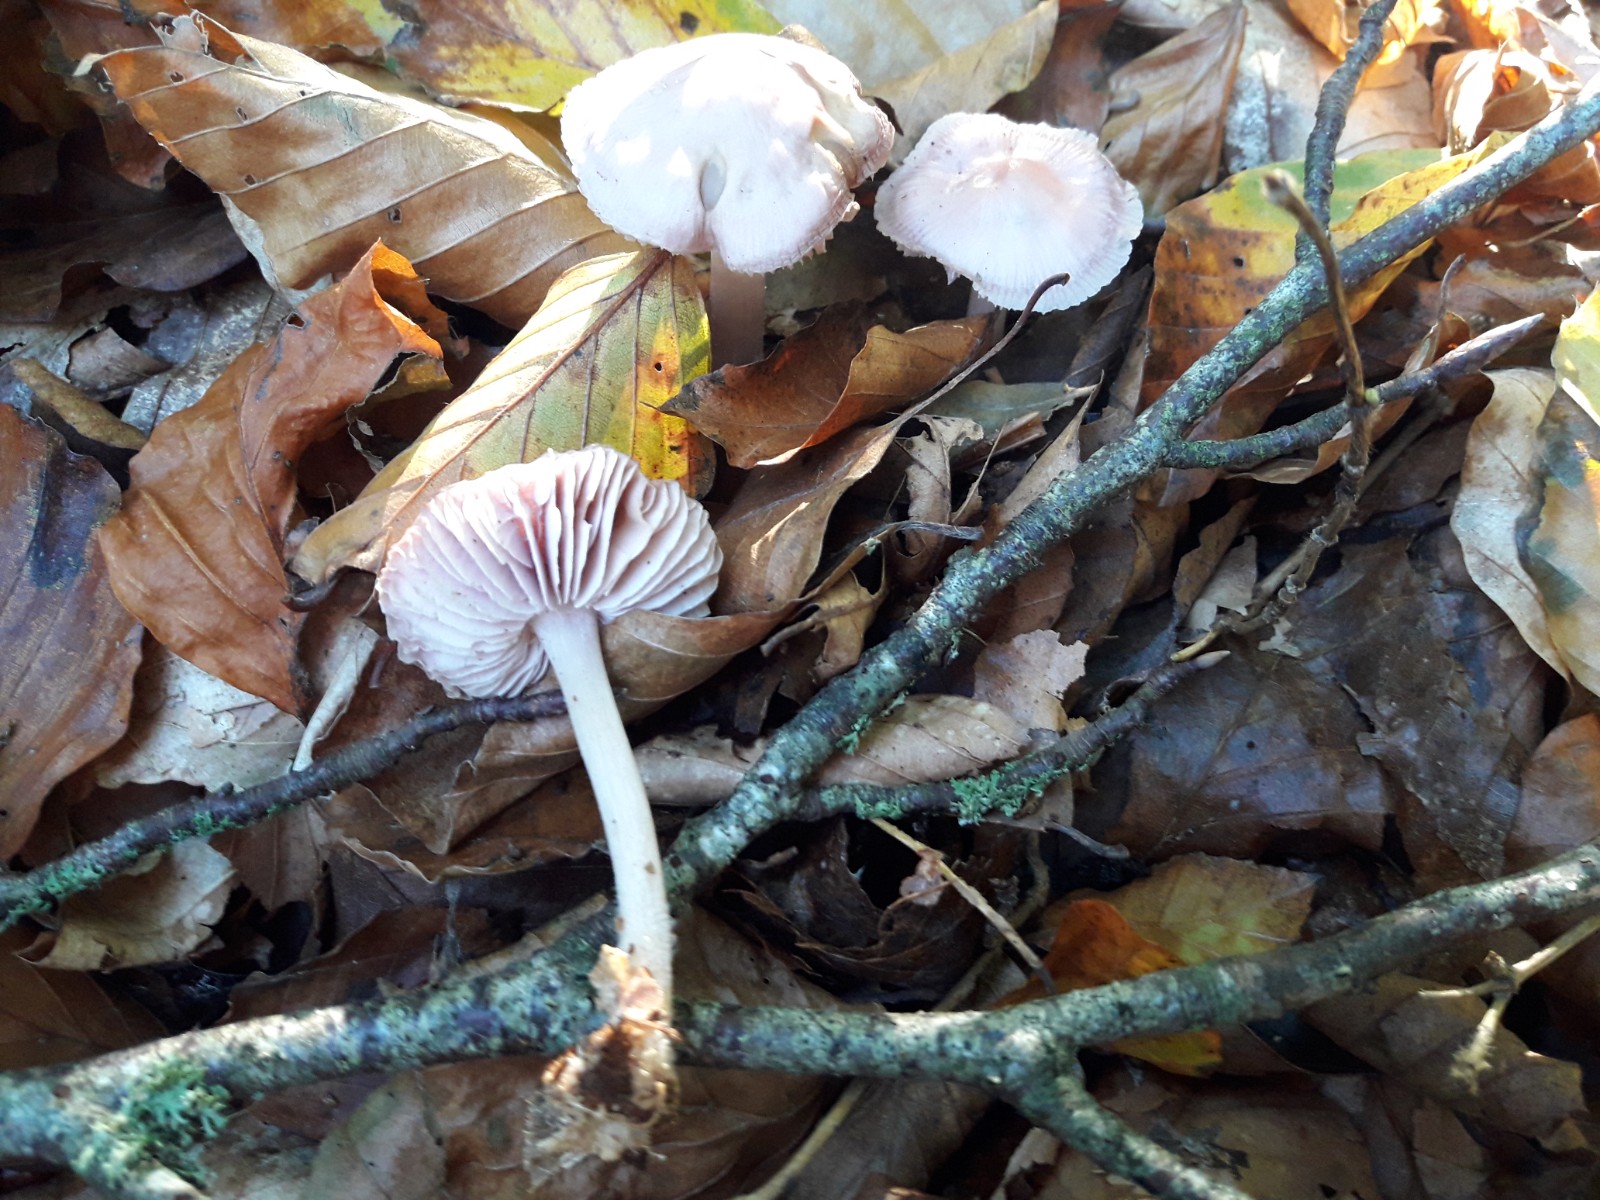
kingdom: Fungi
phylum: Basidiomycota
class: Agaricomycetes
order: Agaricales
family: Mycenaceae
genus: Mycena
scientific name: Mycena rosea
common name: rosa huesvamp
